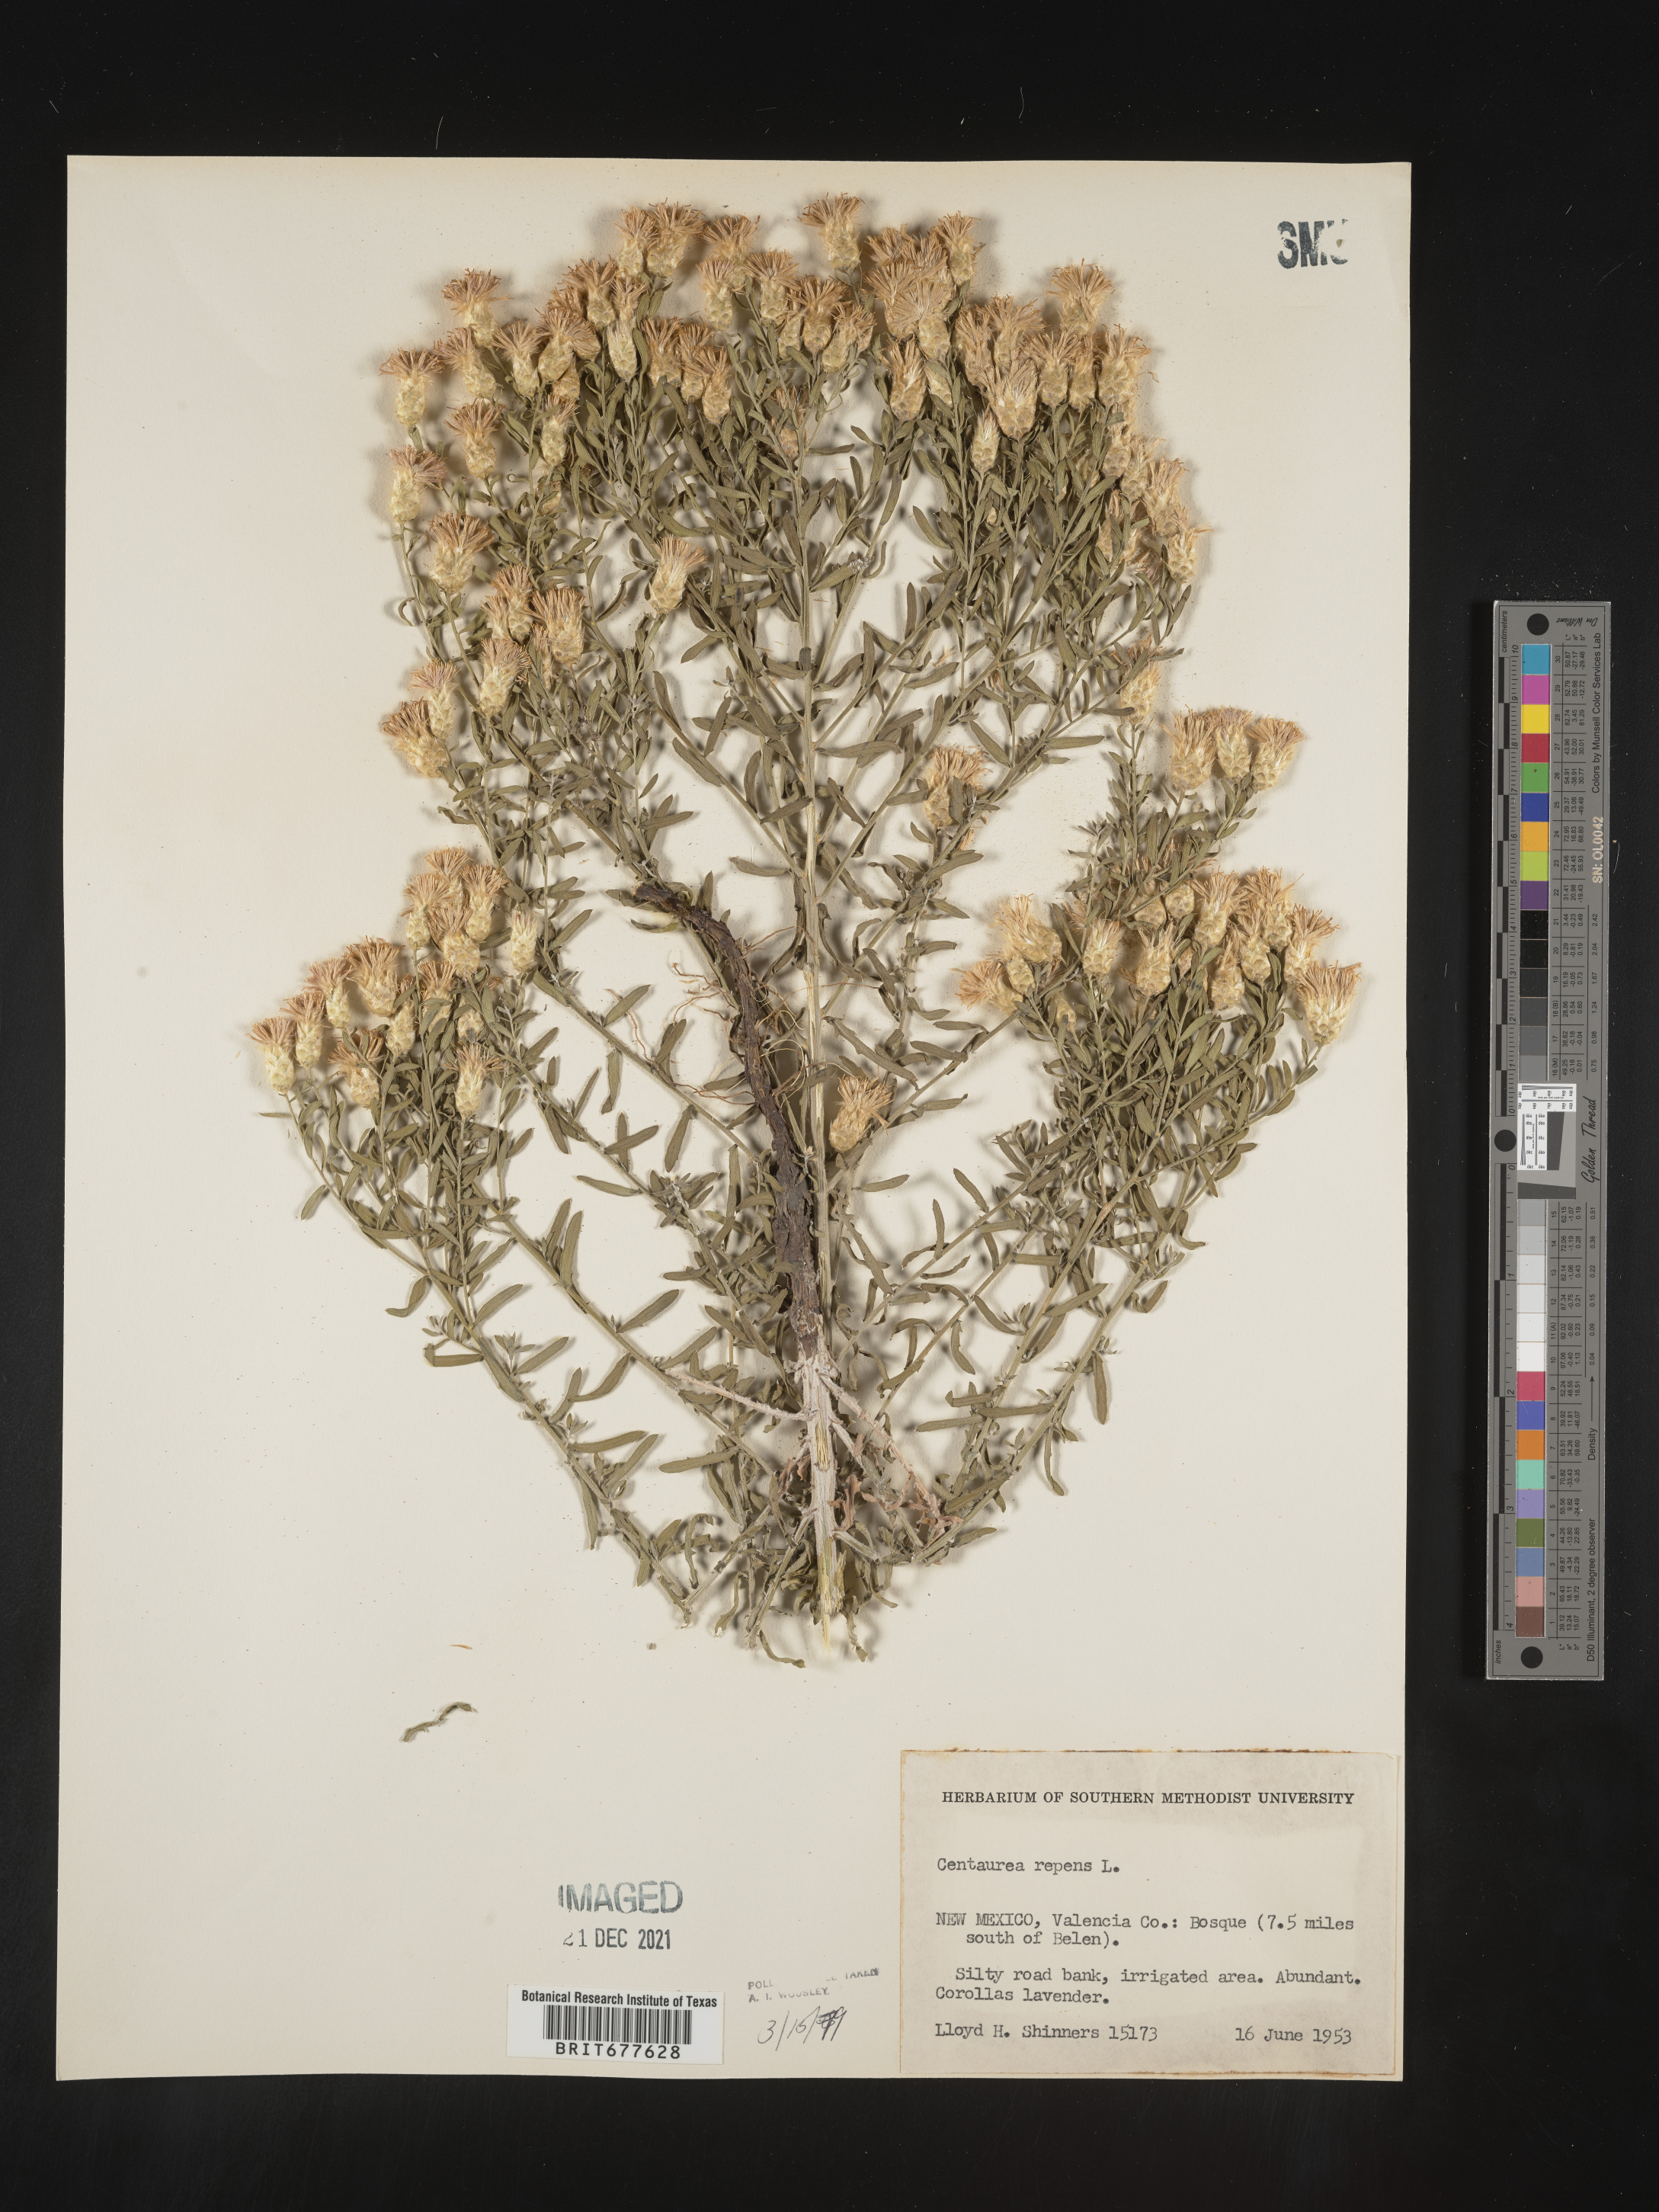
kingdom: Plantae
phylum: Tracheophyta
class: Magnoliopsida
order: Asterales
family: Asteraceae
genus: Leuzea
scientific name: Leuzea repens
